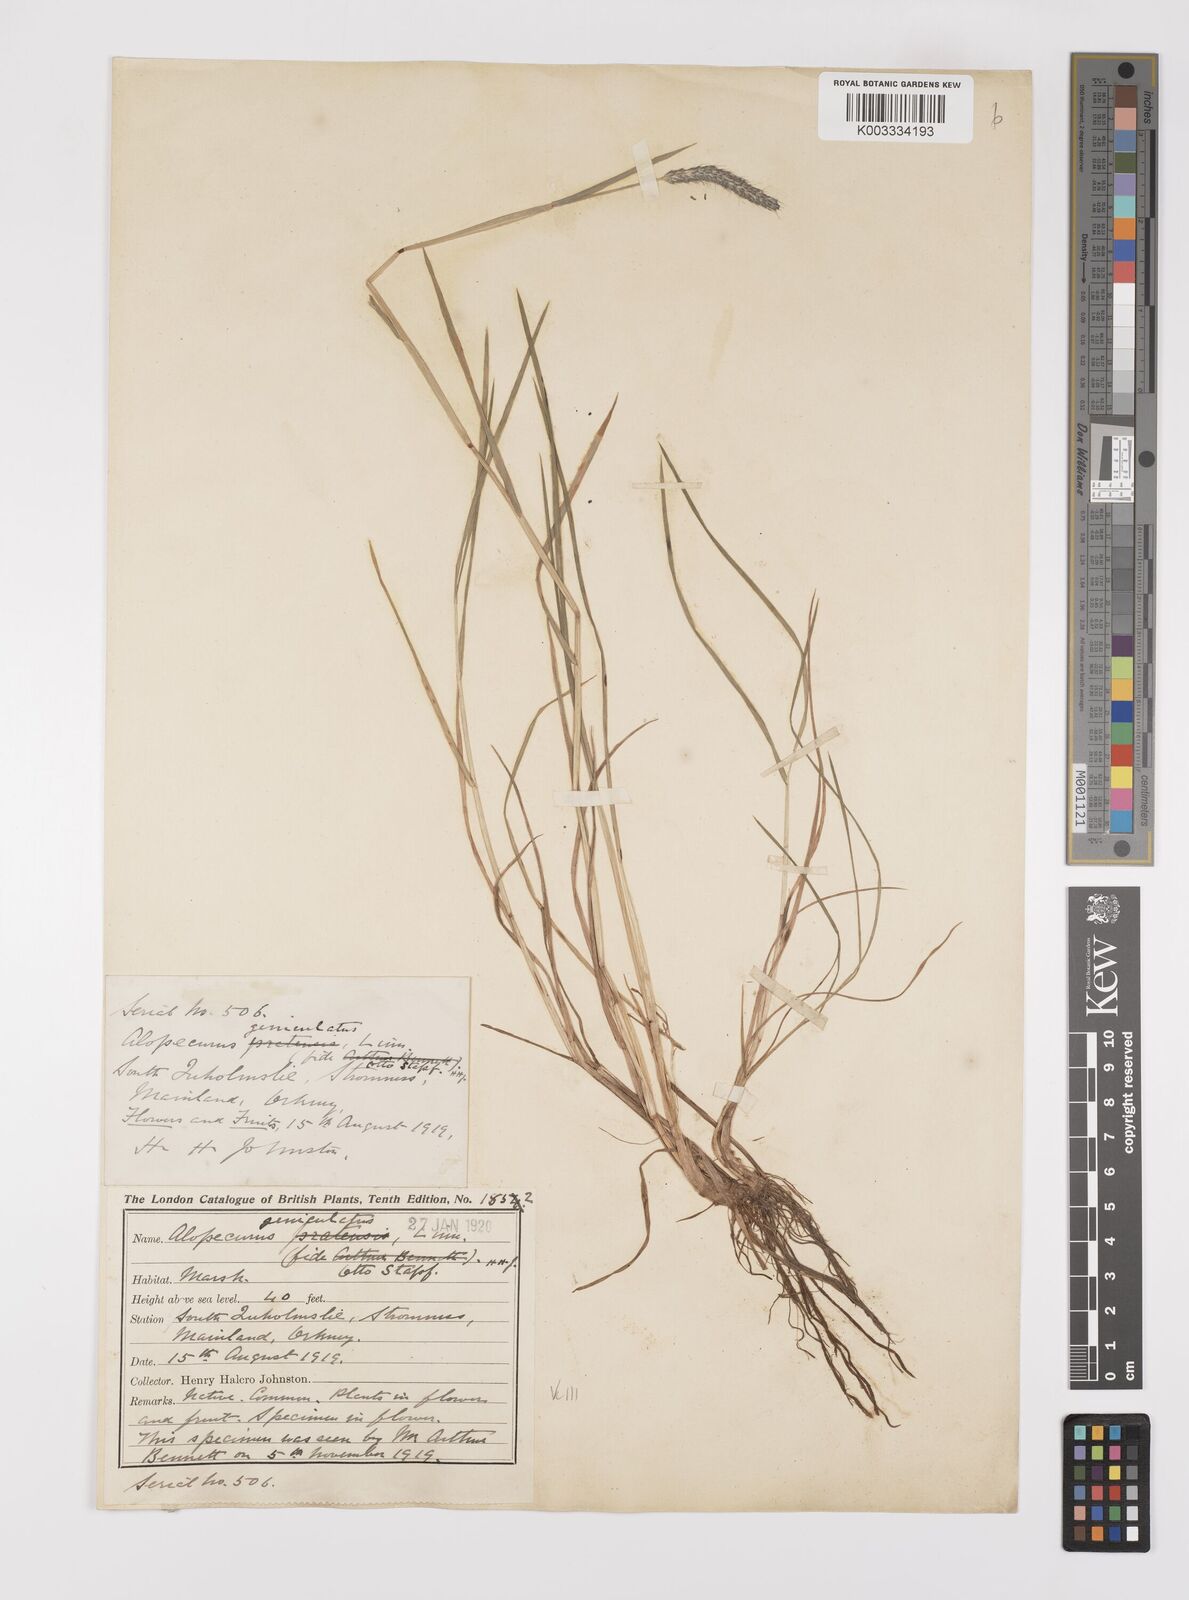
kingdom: Plantae
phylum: Tracheophyta
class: Liliopsida
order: Poales
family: Poaceae
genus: Alopecurus
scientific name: Alopecurus geniculatus
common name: Water foxtail
